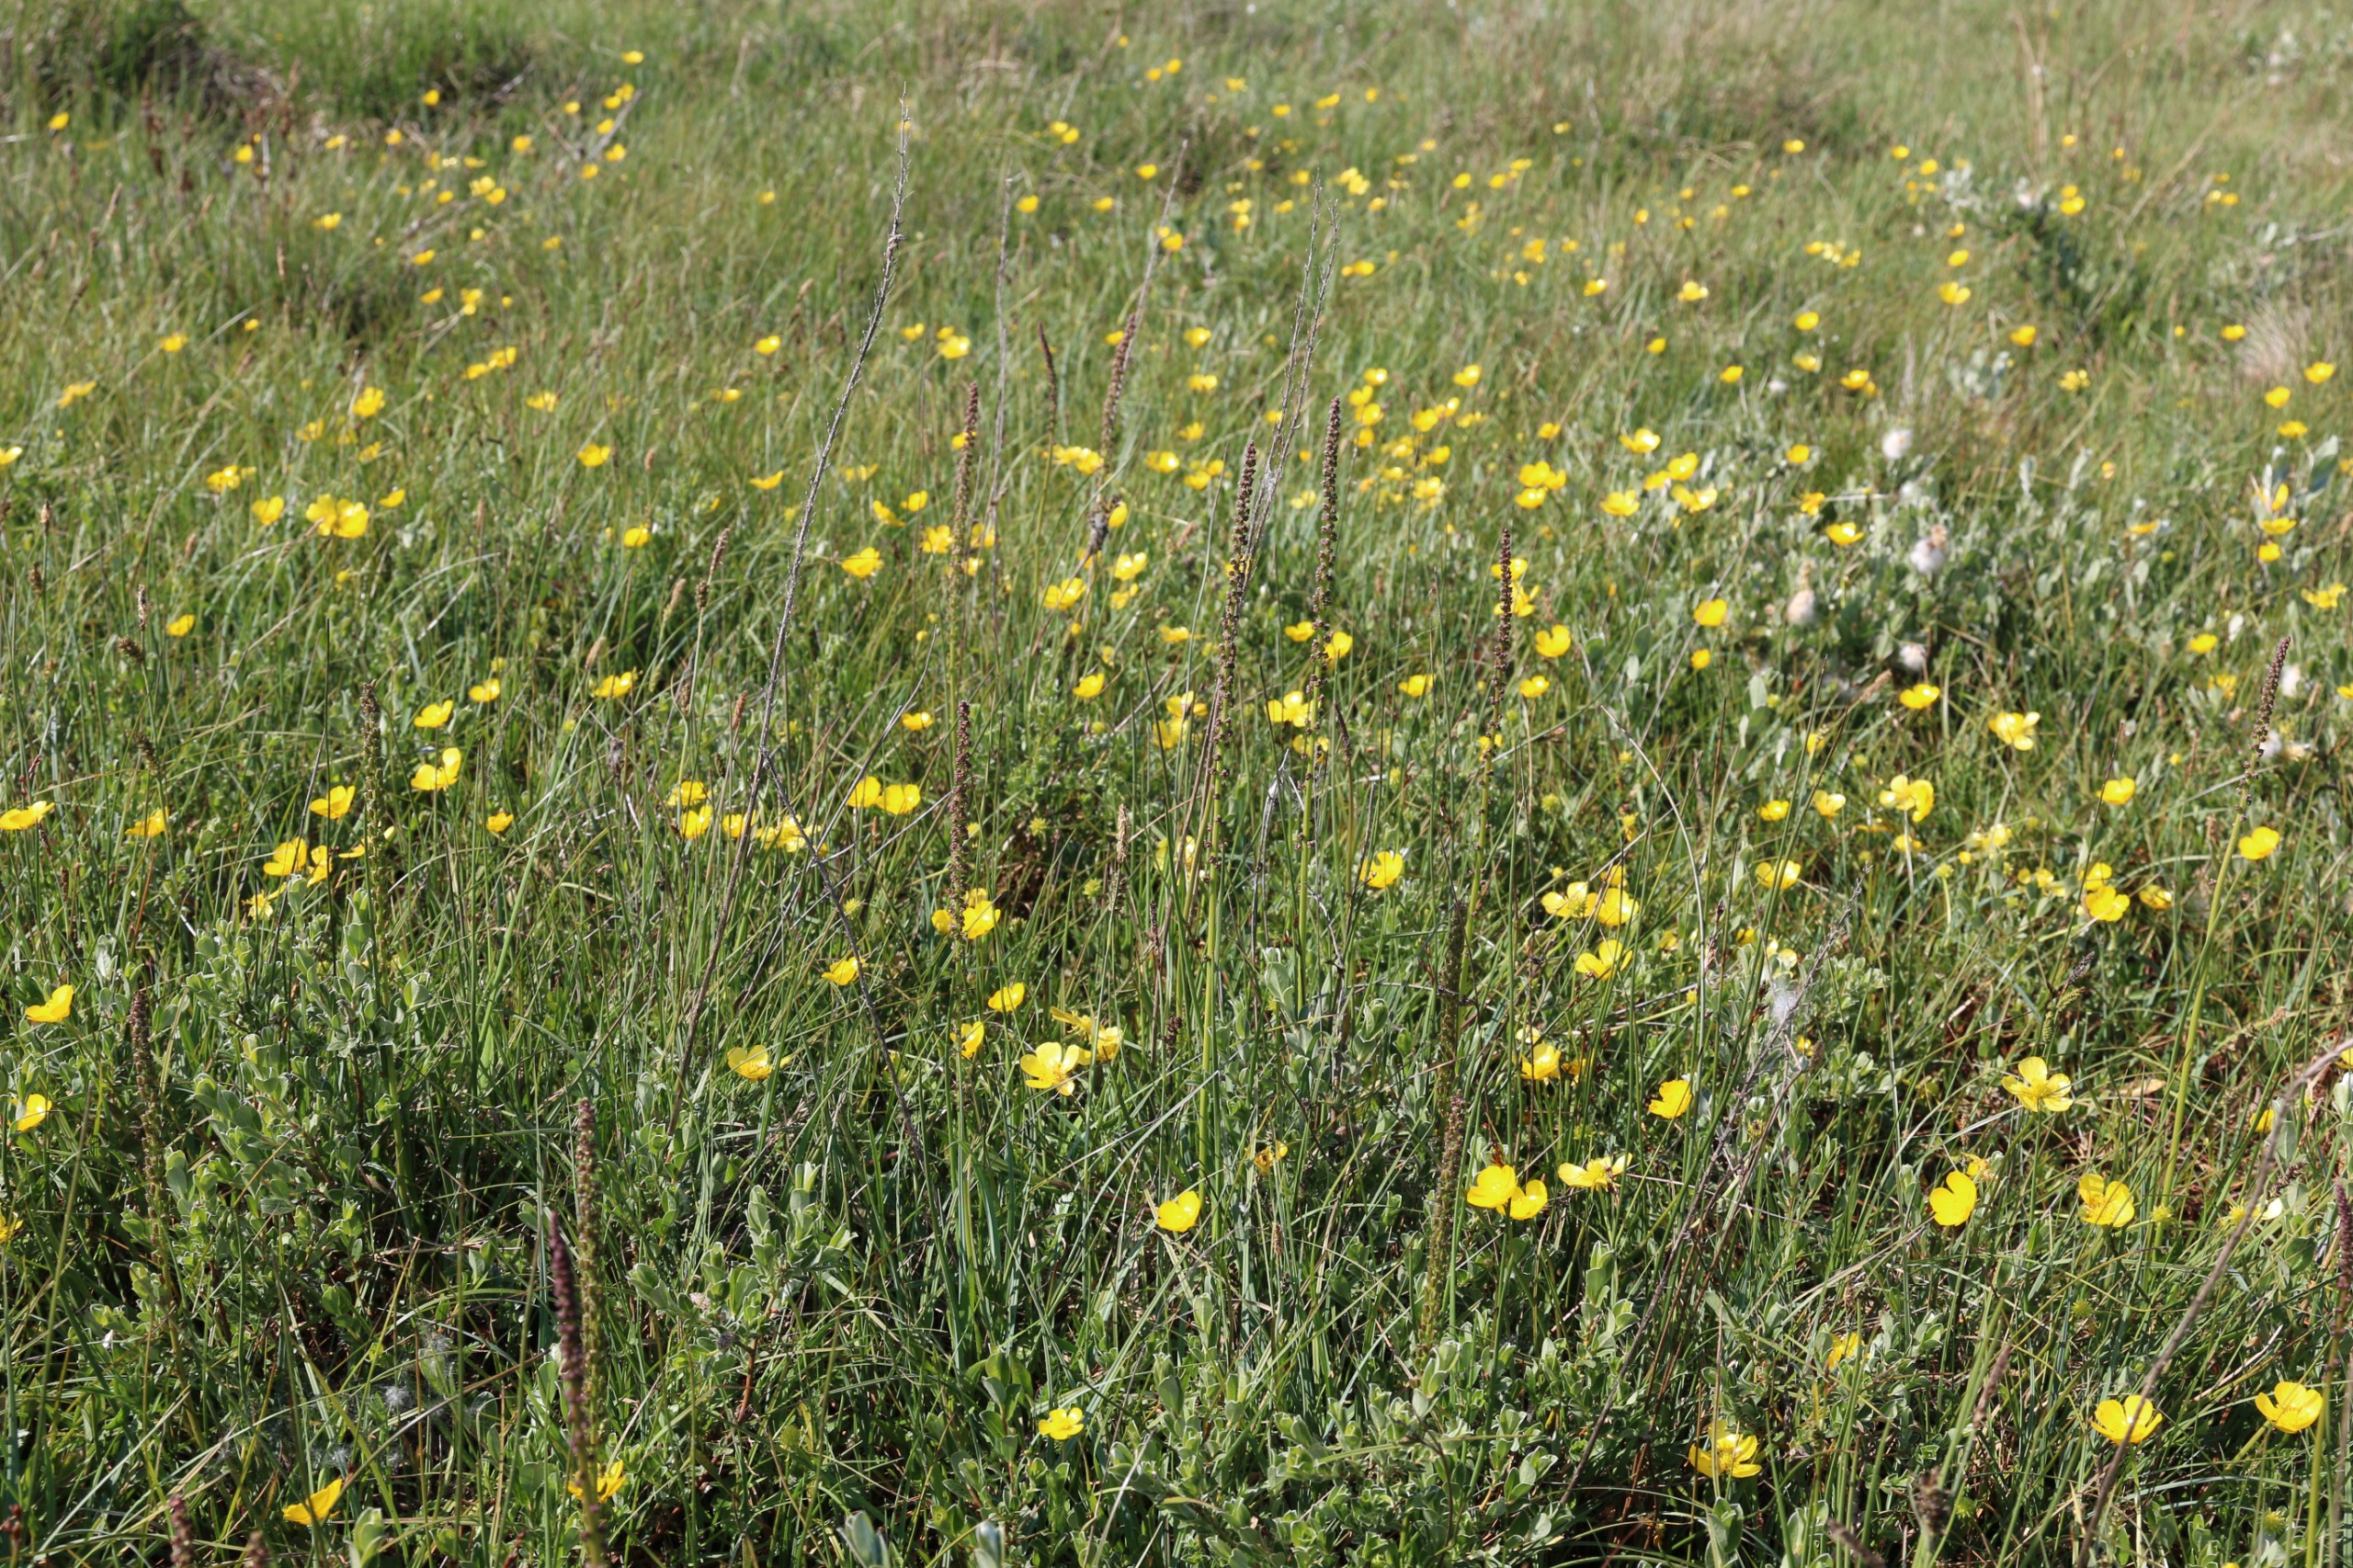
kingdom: Plantae
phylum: Tracheophyta
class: Liliopsida
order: Alismatales
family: Juncaginaceae
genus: Triglochin
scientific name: Triglochin maritima
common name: Strand-trehage
